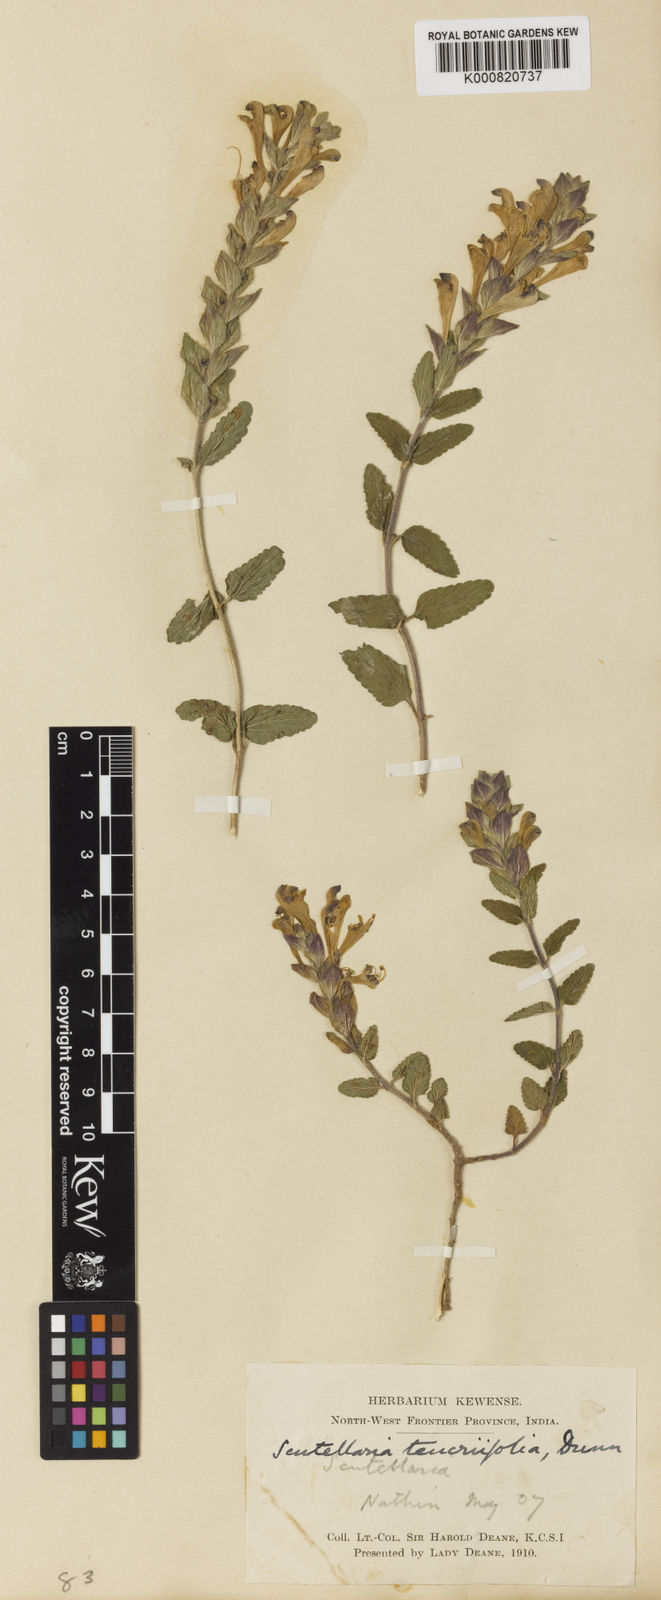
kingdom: Plantae
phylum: Tracheophyta
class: Magnoliopsida
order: Lamiales
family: Lamiaceae
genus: Scutellaria
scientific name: Scutellaria chamaedrifolia
